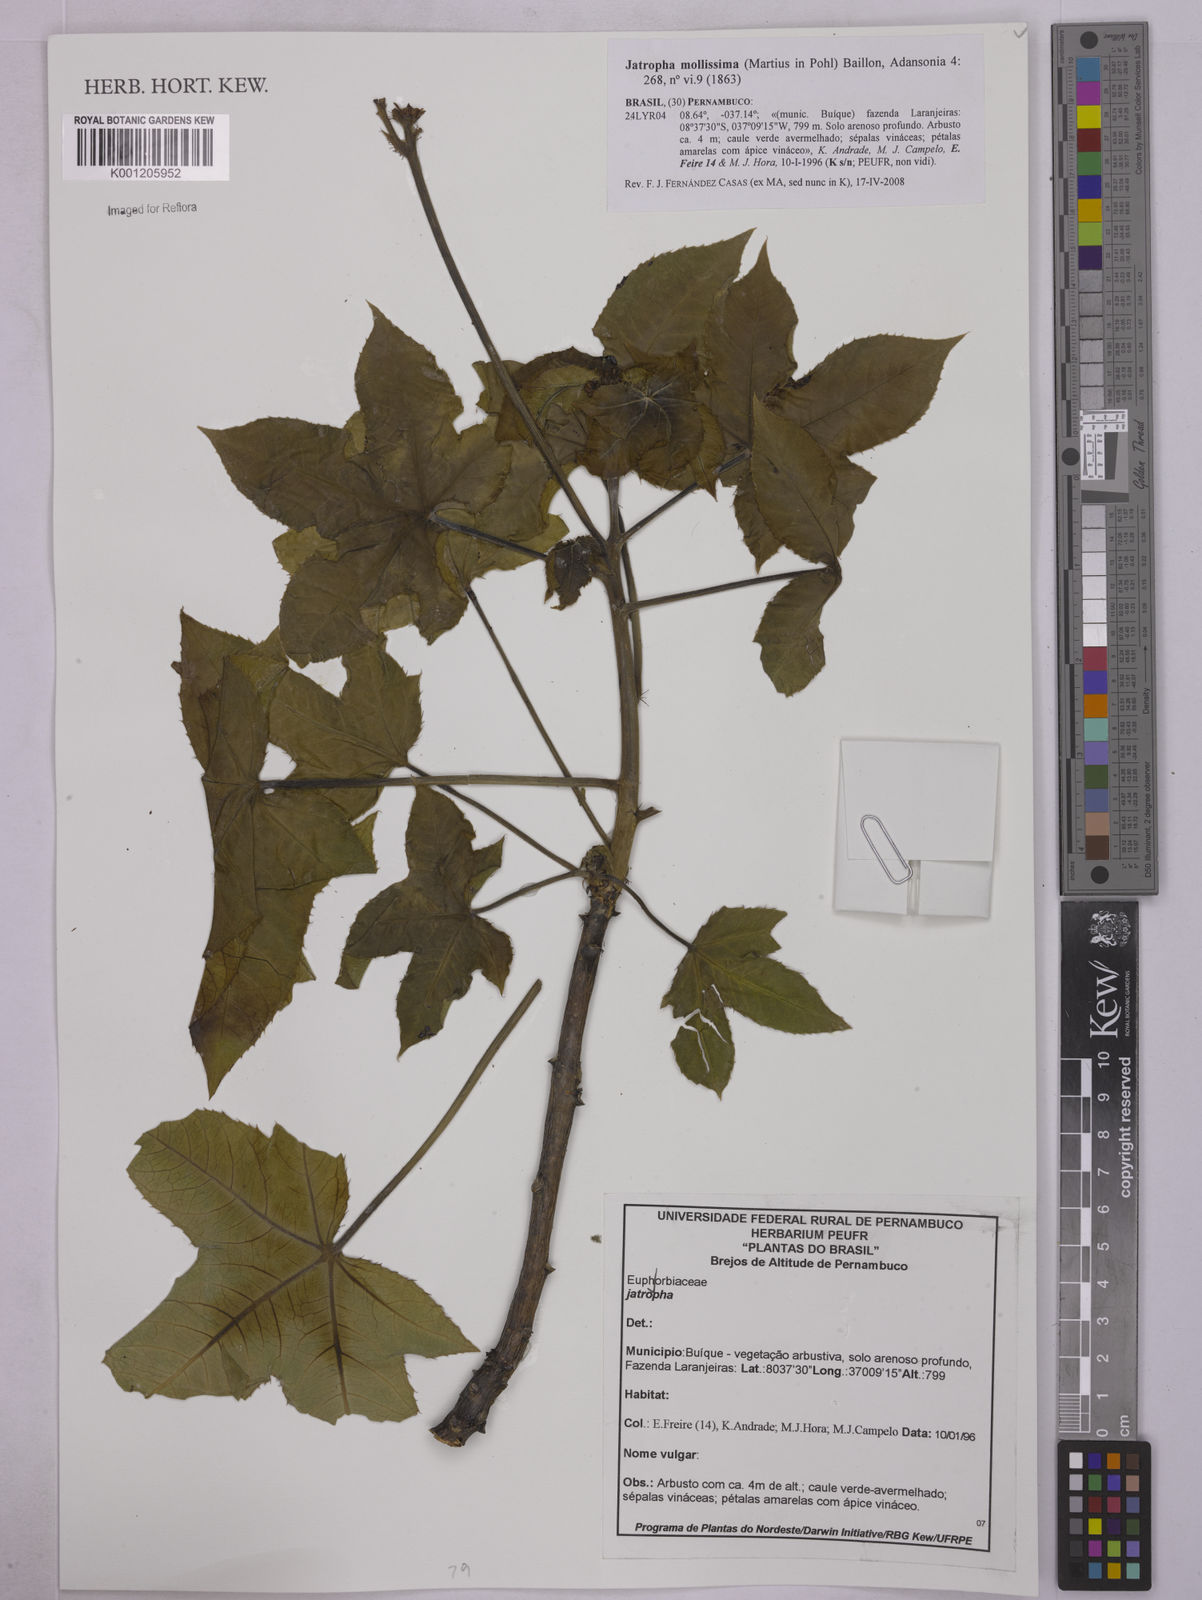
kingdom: Plantae
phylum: Tracheophyta
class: Magnoliopsida
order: Malpighiales
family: Euphorbiaceae
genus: Jatropha
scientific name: Jatropha mollissima
